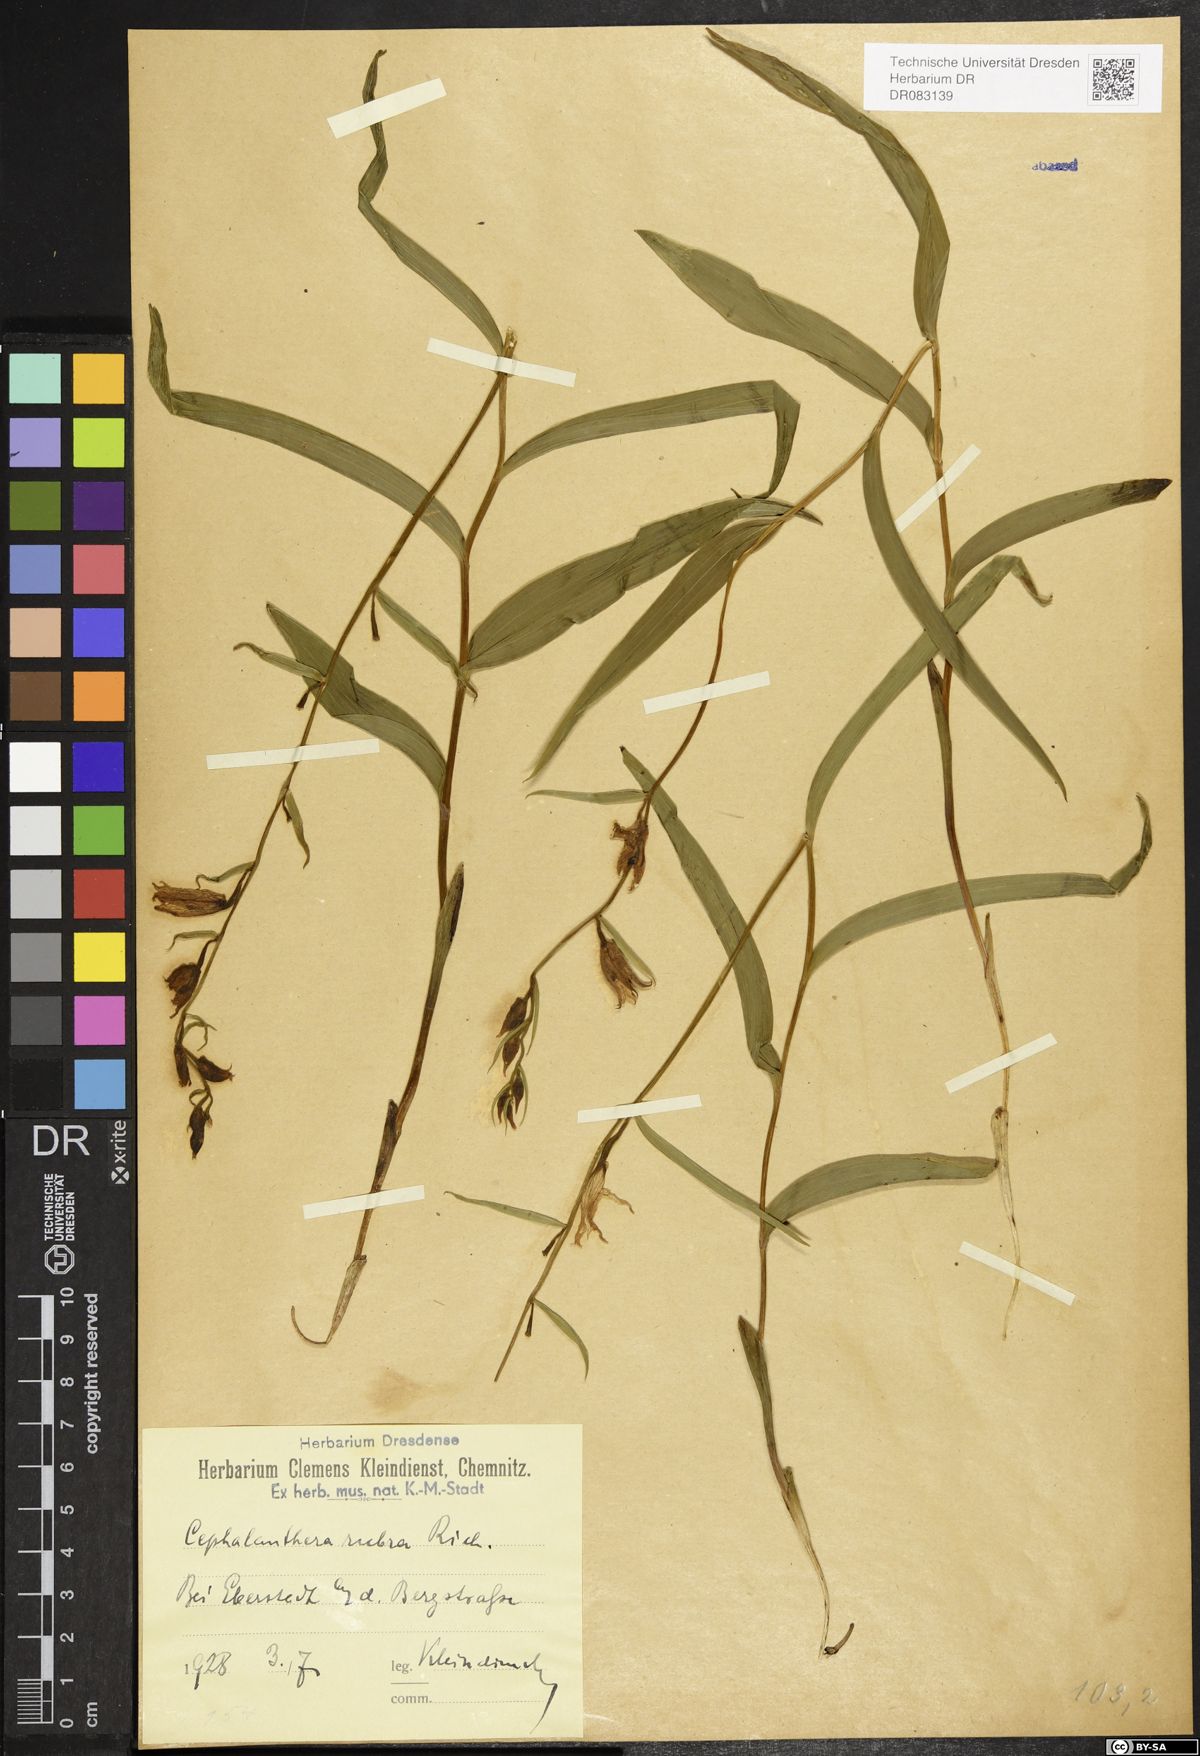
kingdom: Plantae
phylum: Tracheophyta
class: Liliopsida
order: Asparagales
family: Orchidaceae
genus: Cephalanthera
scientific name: Cephalanthera rubra
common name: Red helleborine
